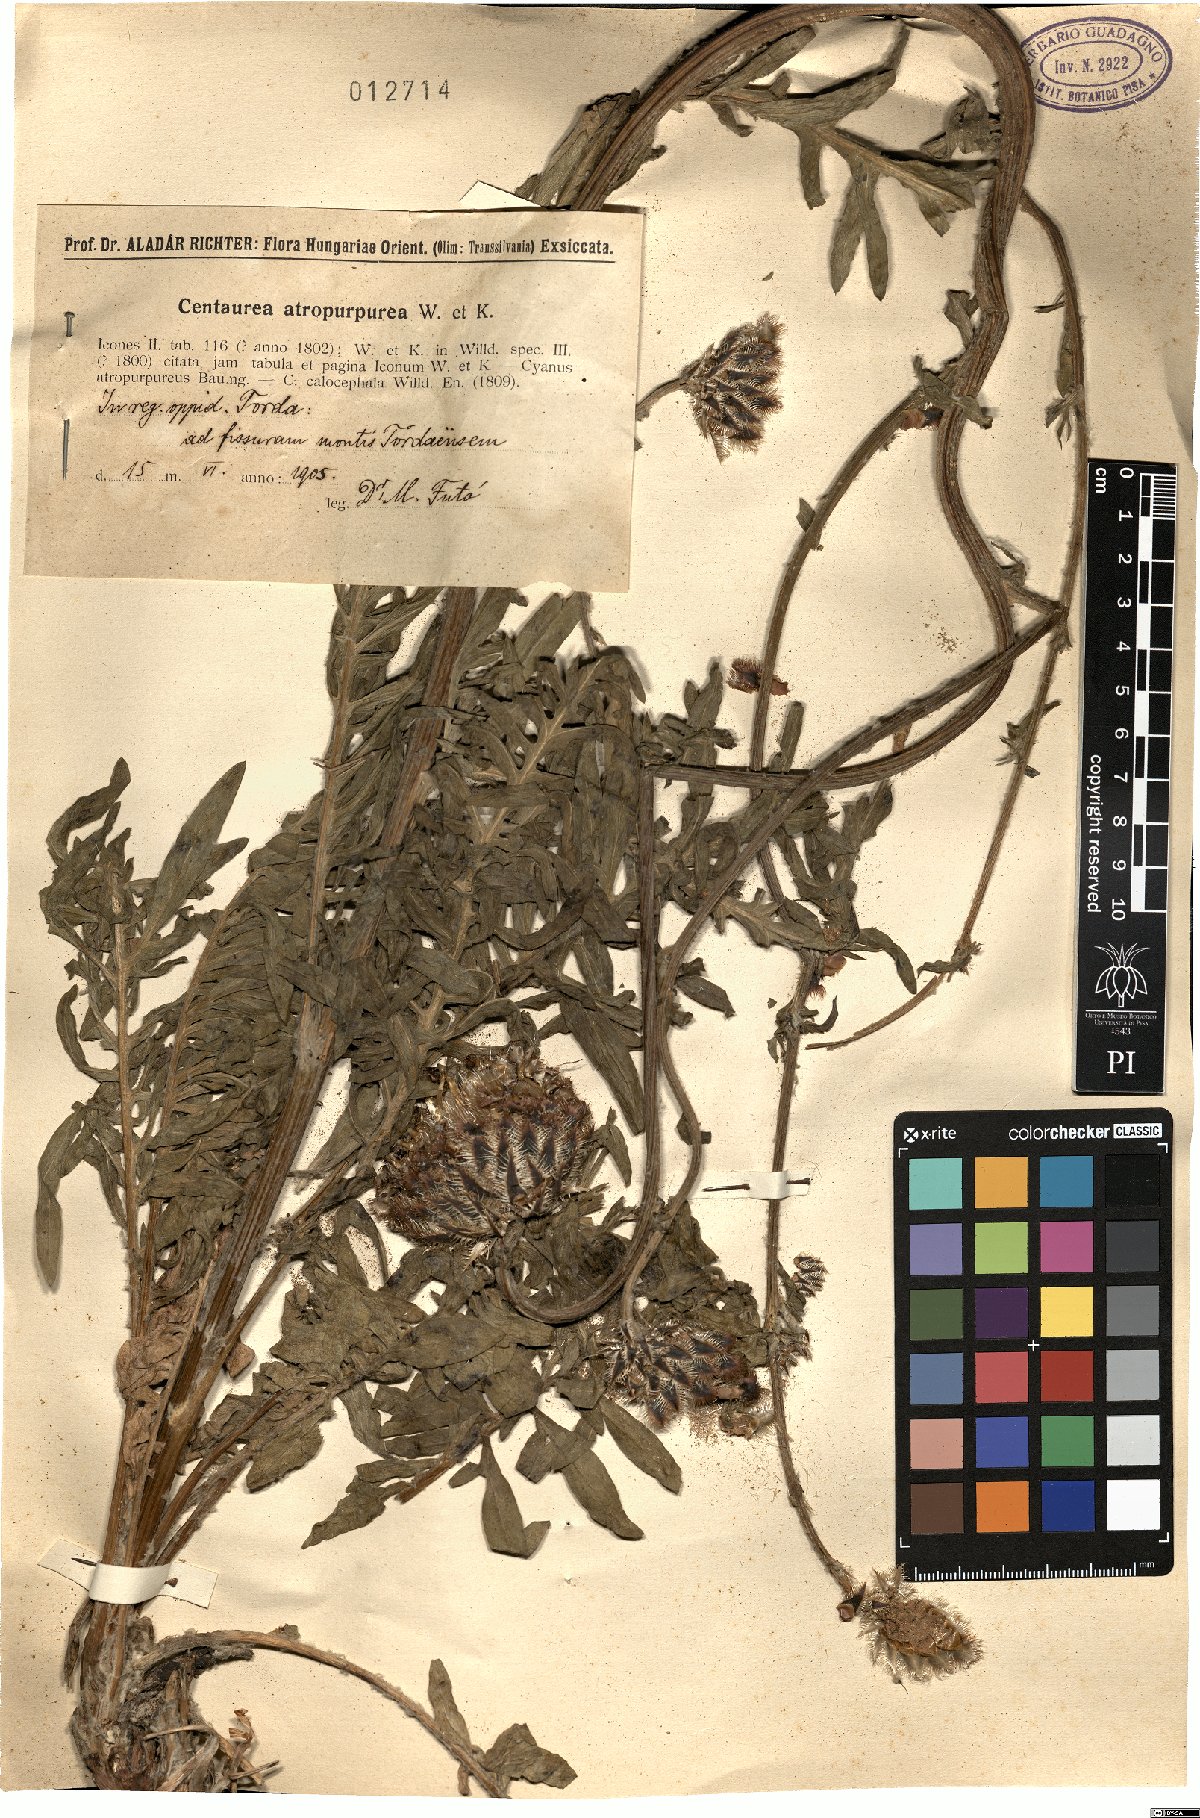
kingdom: Plantae
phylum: Tracheophyta
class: Magnoliopsida
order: Asterales
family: Asteraceae
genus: Centaurea
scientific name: Centaurea calocephala
